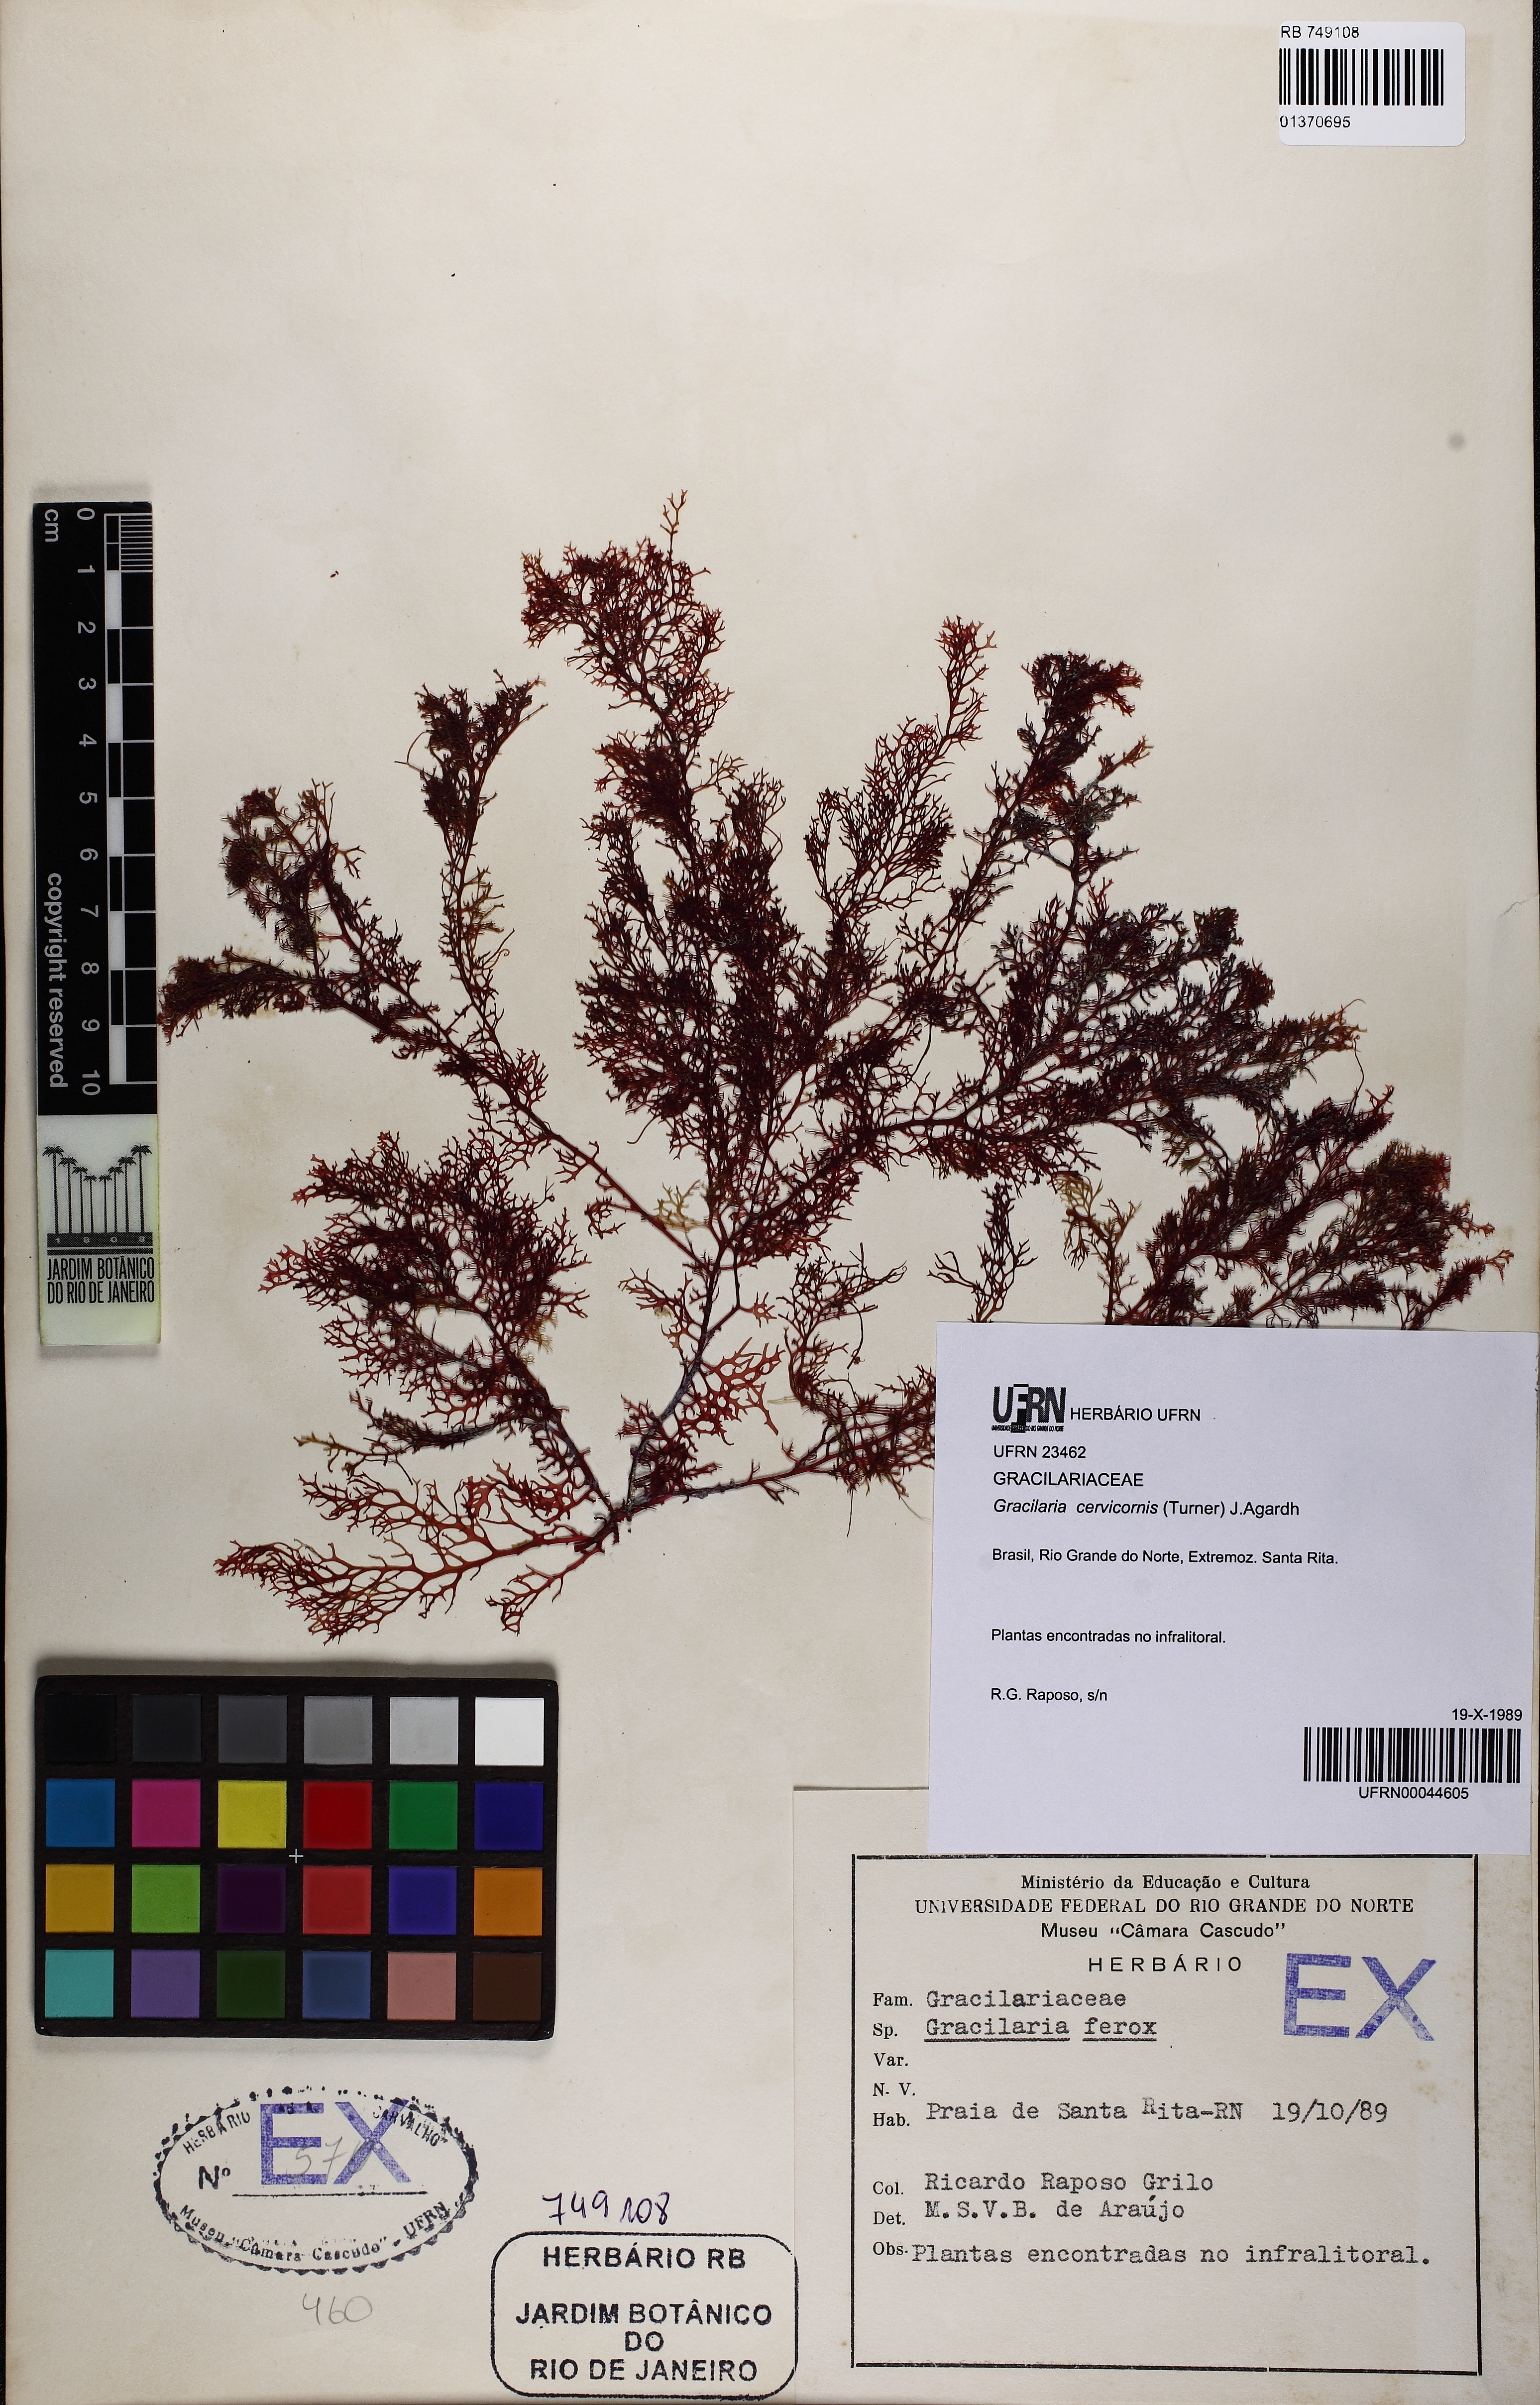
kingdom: Plantae
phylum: Rhodophyta
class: Florideophyceae
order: Gracilariales
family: Gracilariaceae
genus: Gracilaria
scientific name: Gracilaria cervicornis
